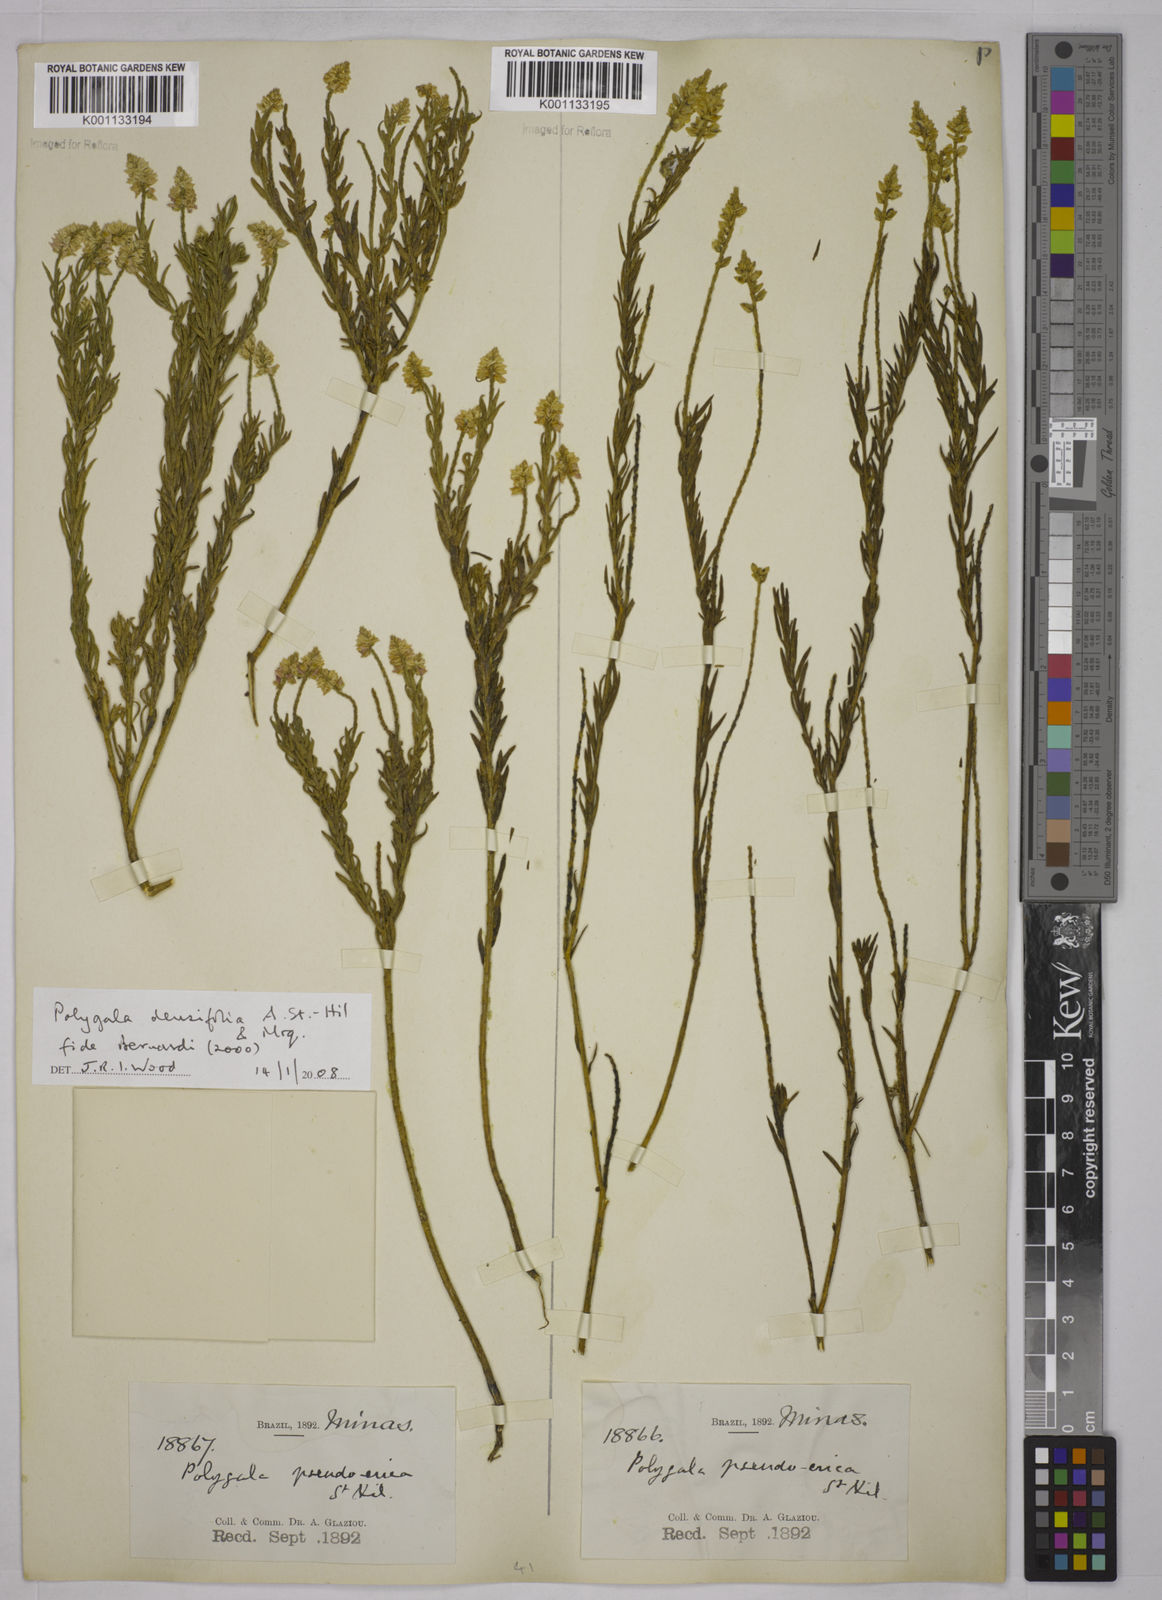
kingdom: Plantae
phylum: Tracheophyta
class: Magnoliopsida
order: Fabales
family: Polygalaceae
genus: Polygala
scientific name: Polygala densifolia
